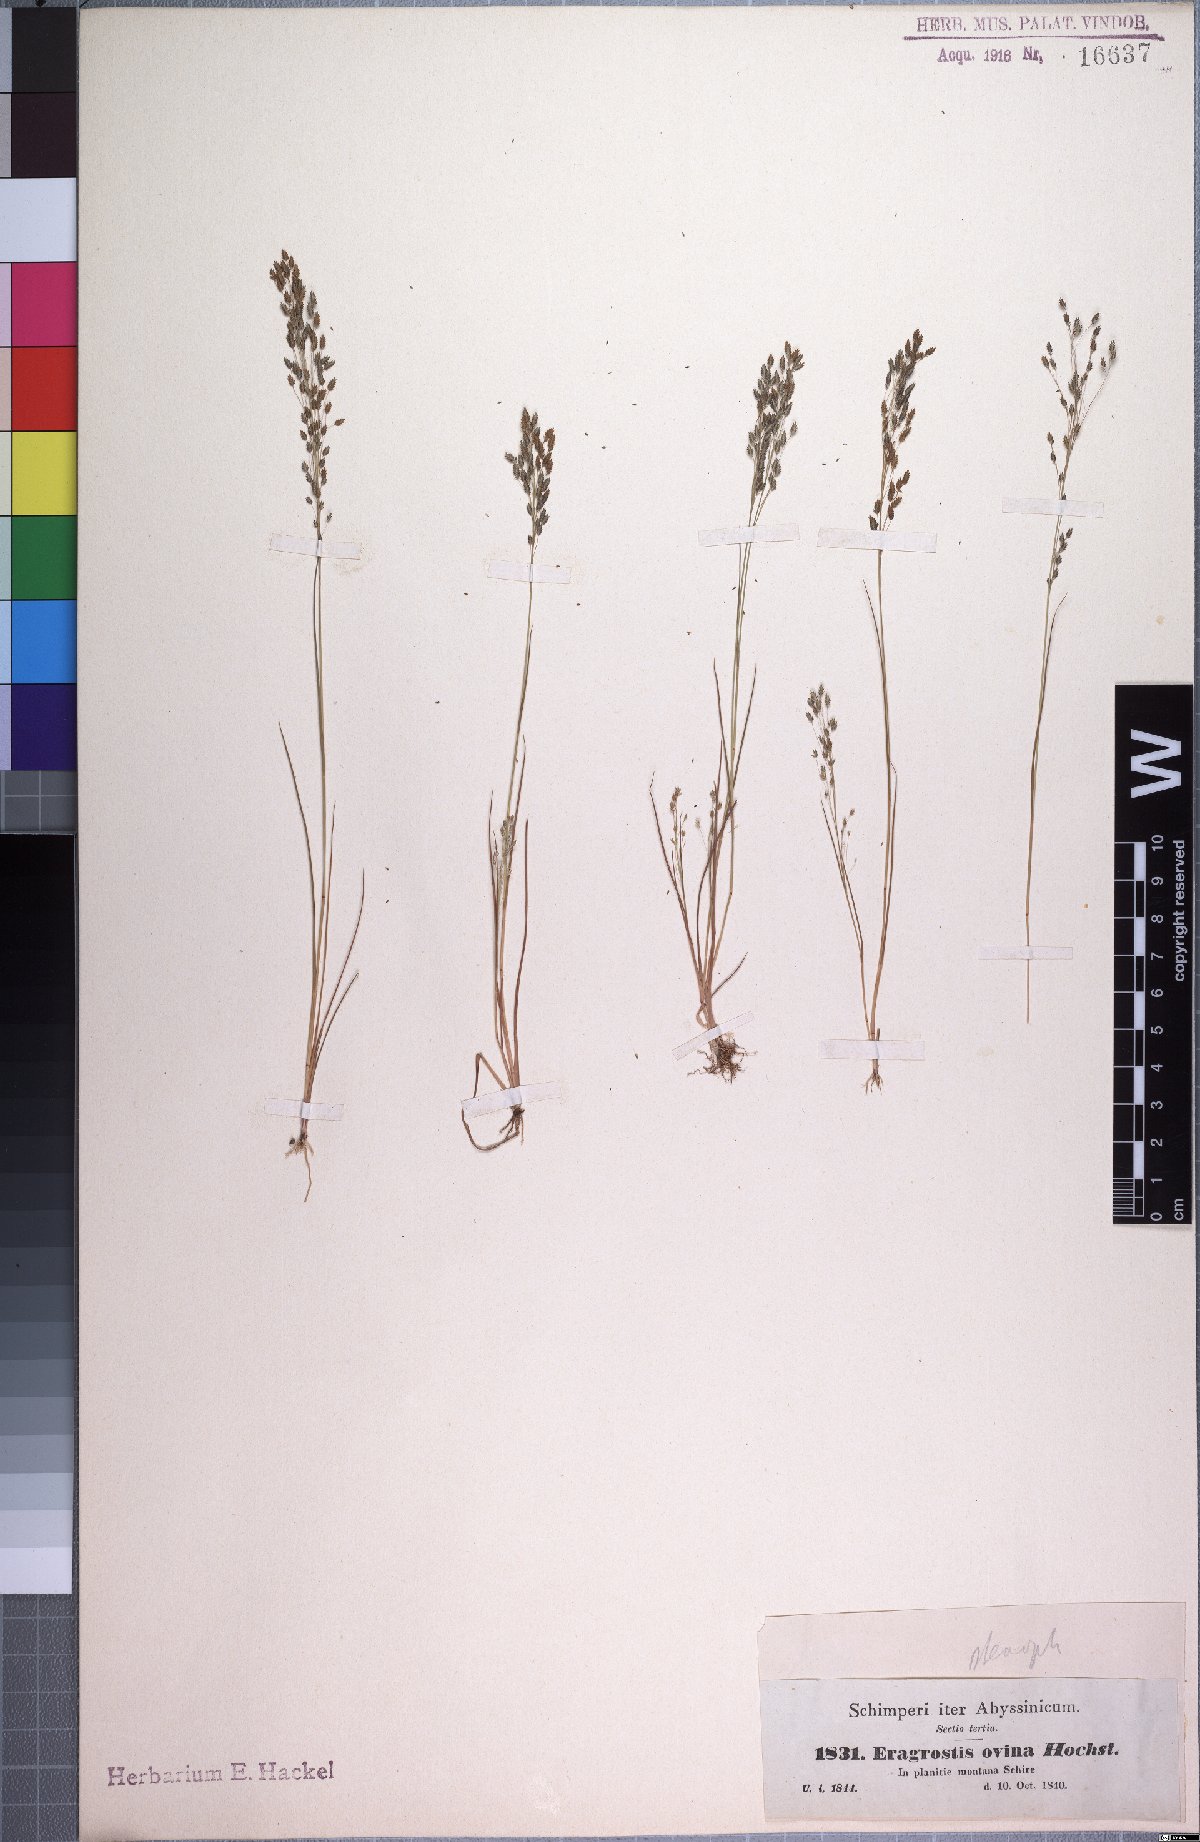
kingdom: Plantae
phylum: Tracheophyta
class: Liliopsida
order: Poales
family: Poaceae
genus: Eragrostis
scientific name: Eragrostis gangetica
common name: Slimflower lovegrass
